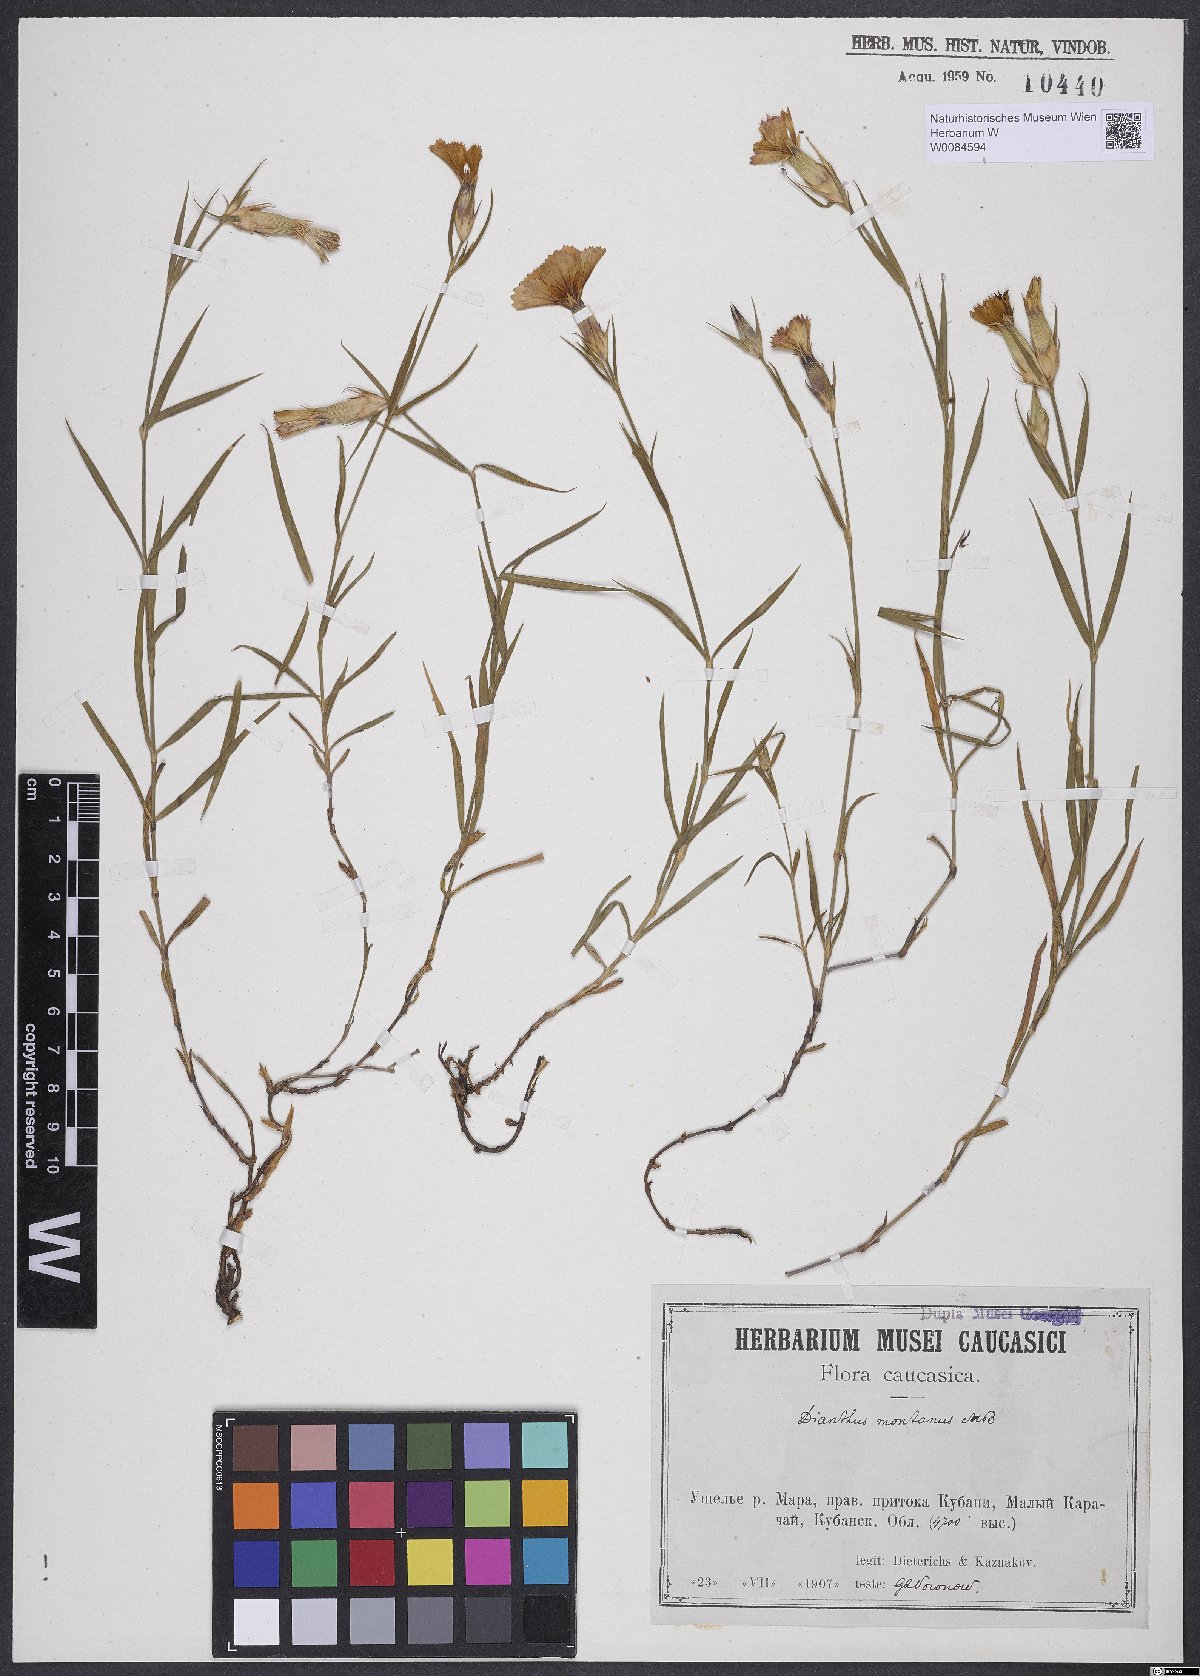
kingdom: Plantae
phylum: Tracheophyta
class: Magnoliopsida
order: Caryophyllales
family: Caryophyllaceae
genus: Dianthus
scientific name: Dianthus caucaseus
